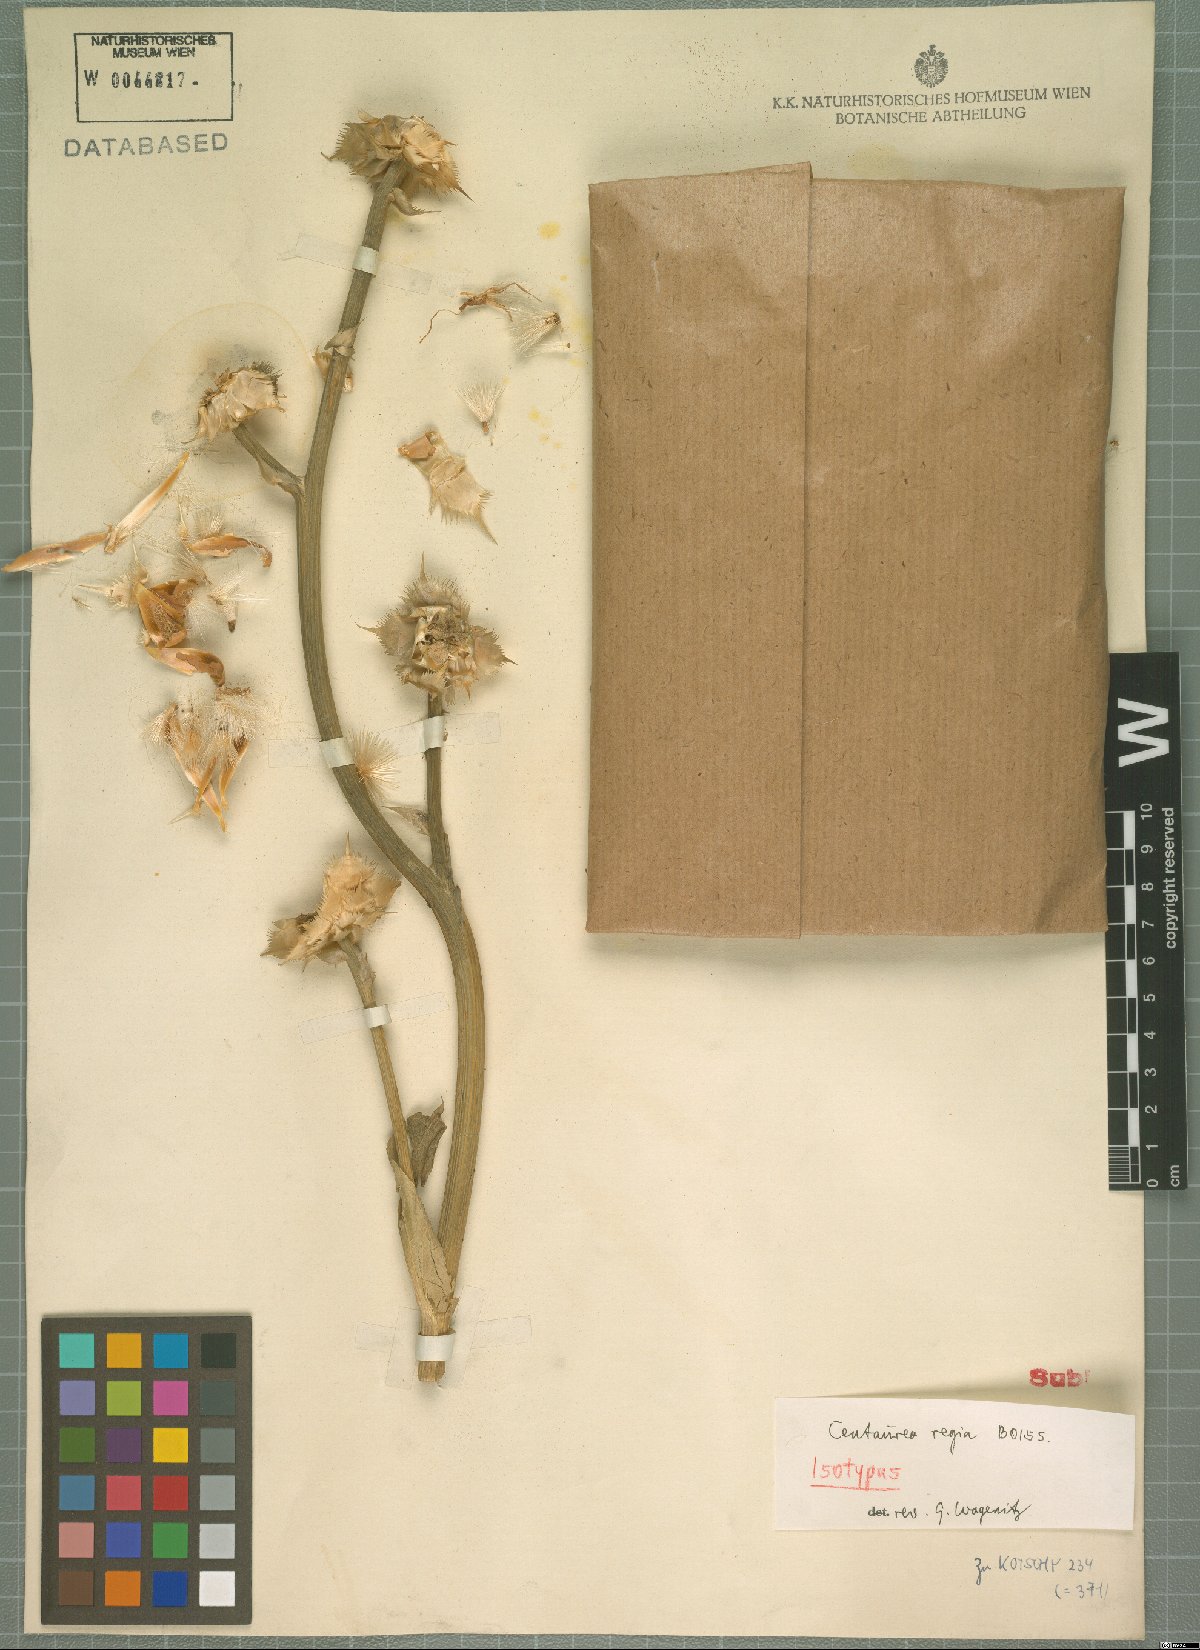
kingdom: Plantae
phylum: Tracheophyta
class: Magnoliopsida
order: Asterales
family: Asteraceae
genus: Centaurea
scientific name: Centaurea regia
